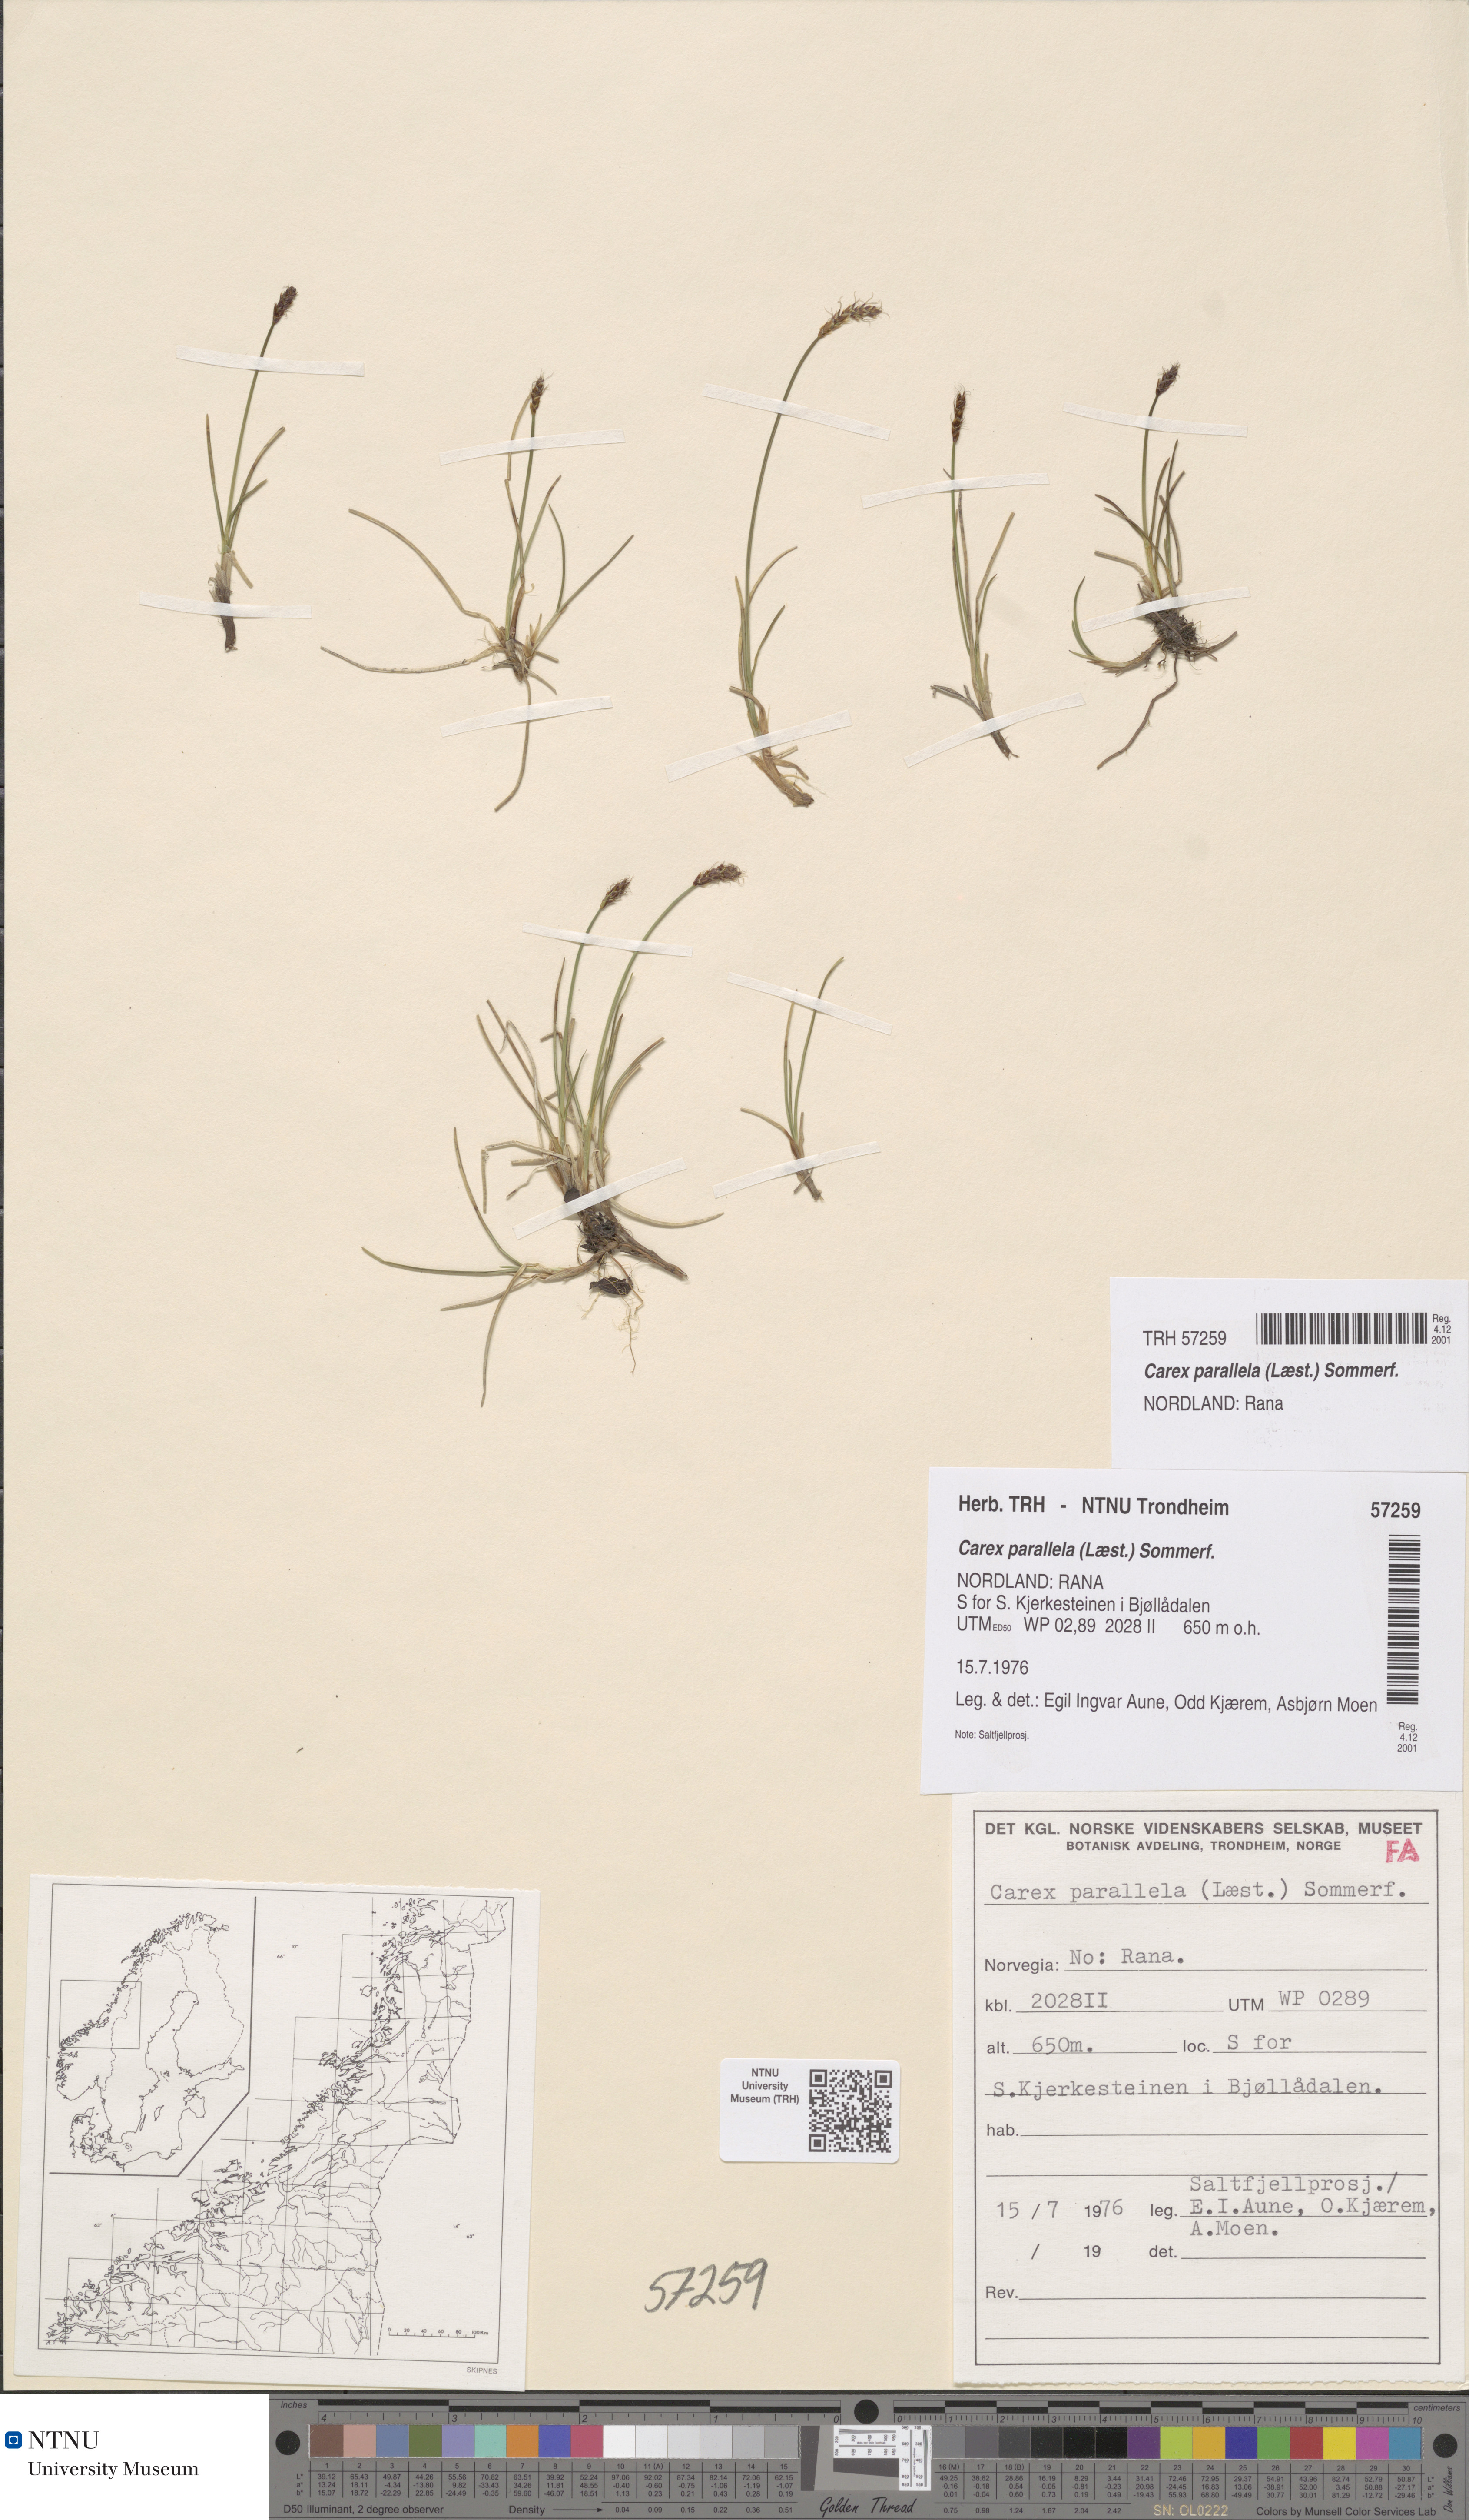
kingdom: Plantae
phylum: Tracheophyta
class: Liliopsida
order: Poales
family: Cyperaceae
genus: Carex
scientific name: Carex parallela
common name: Parallel sedge
